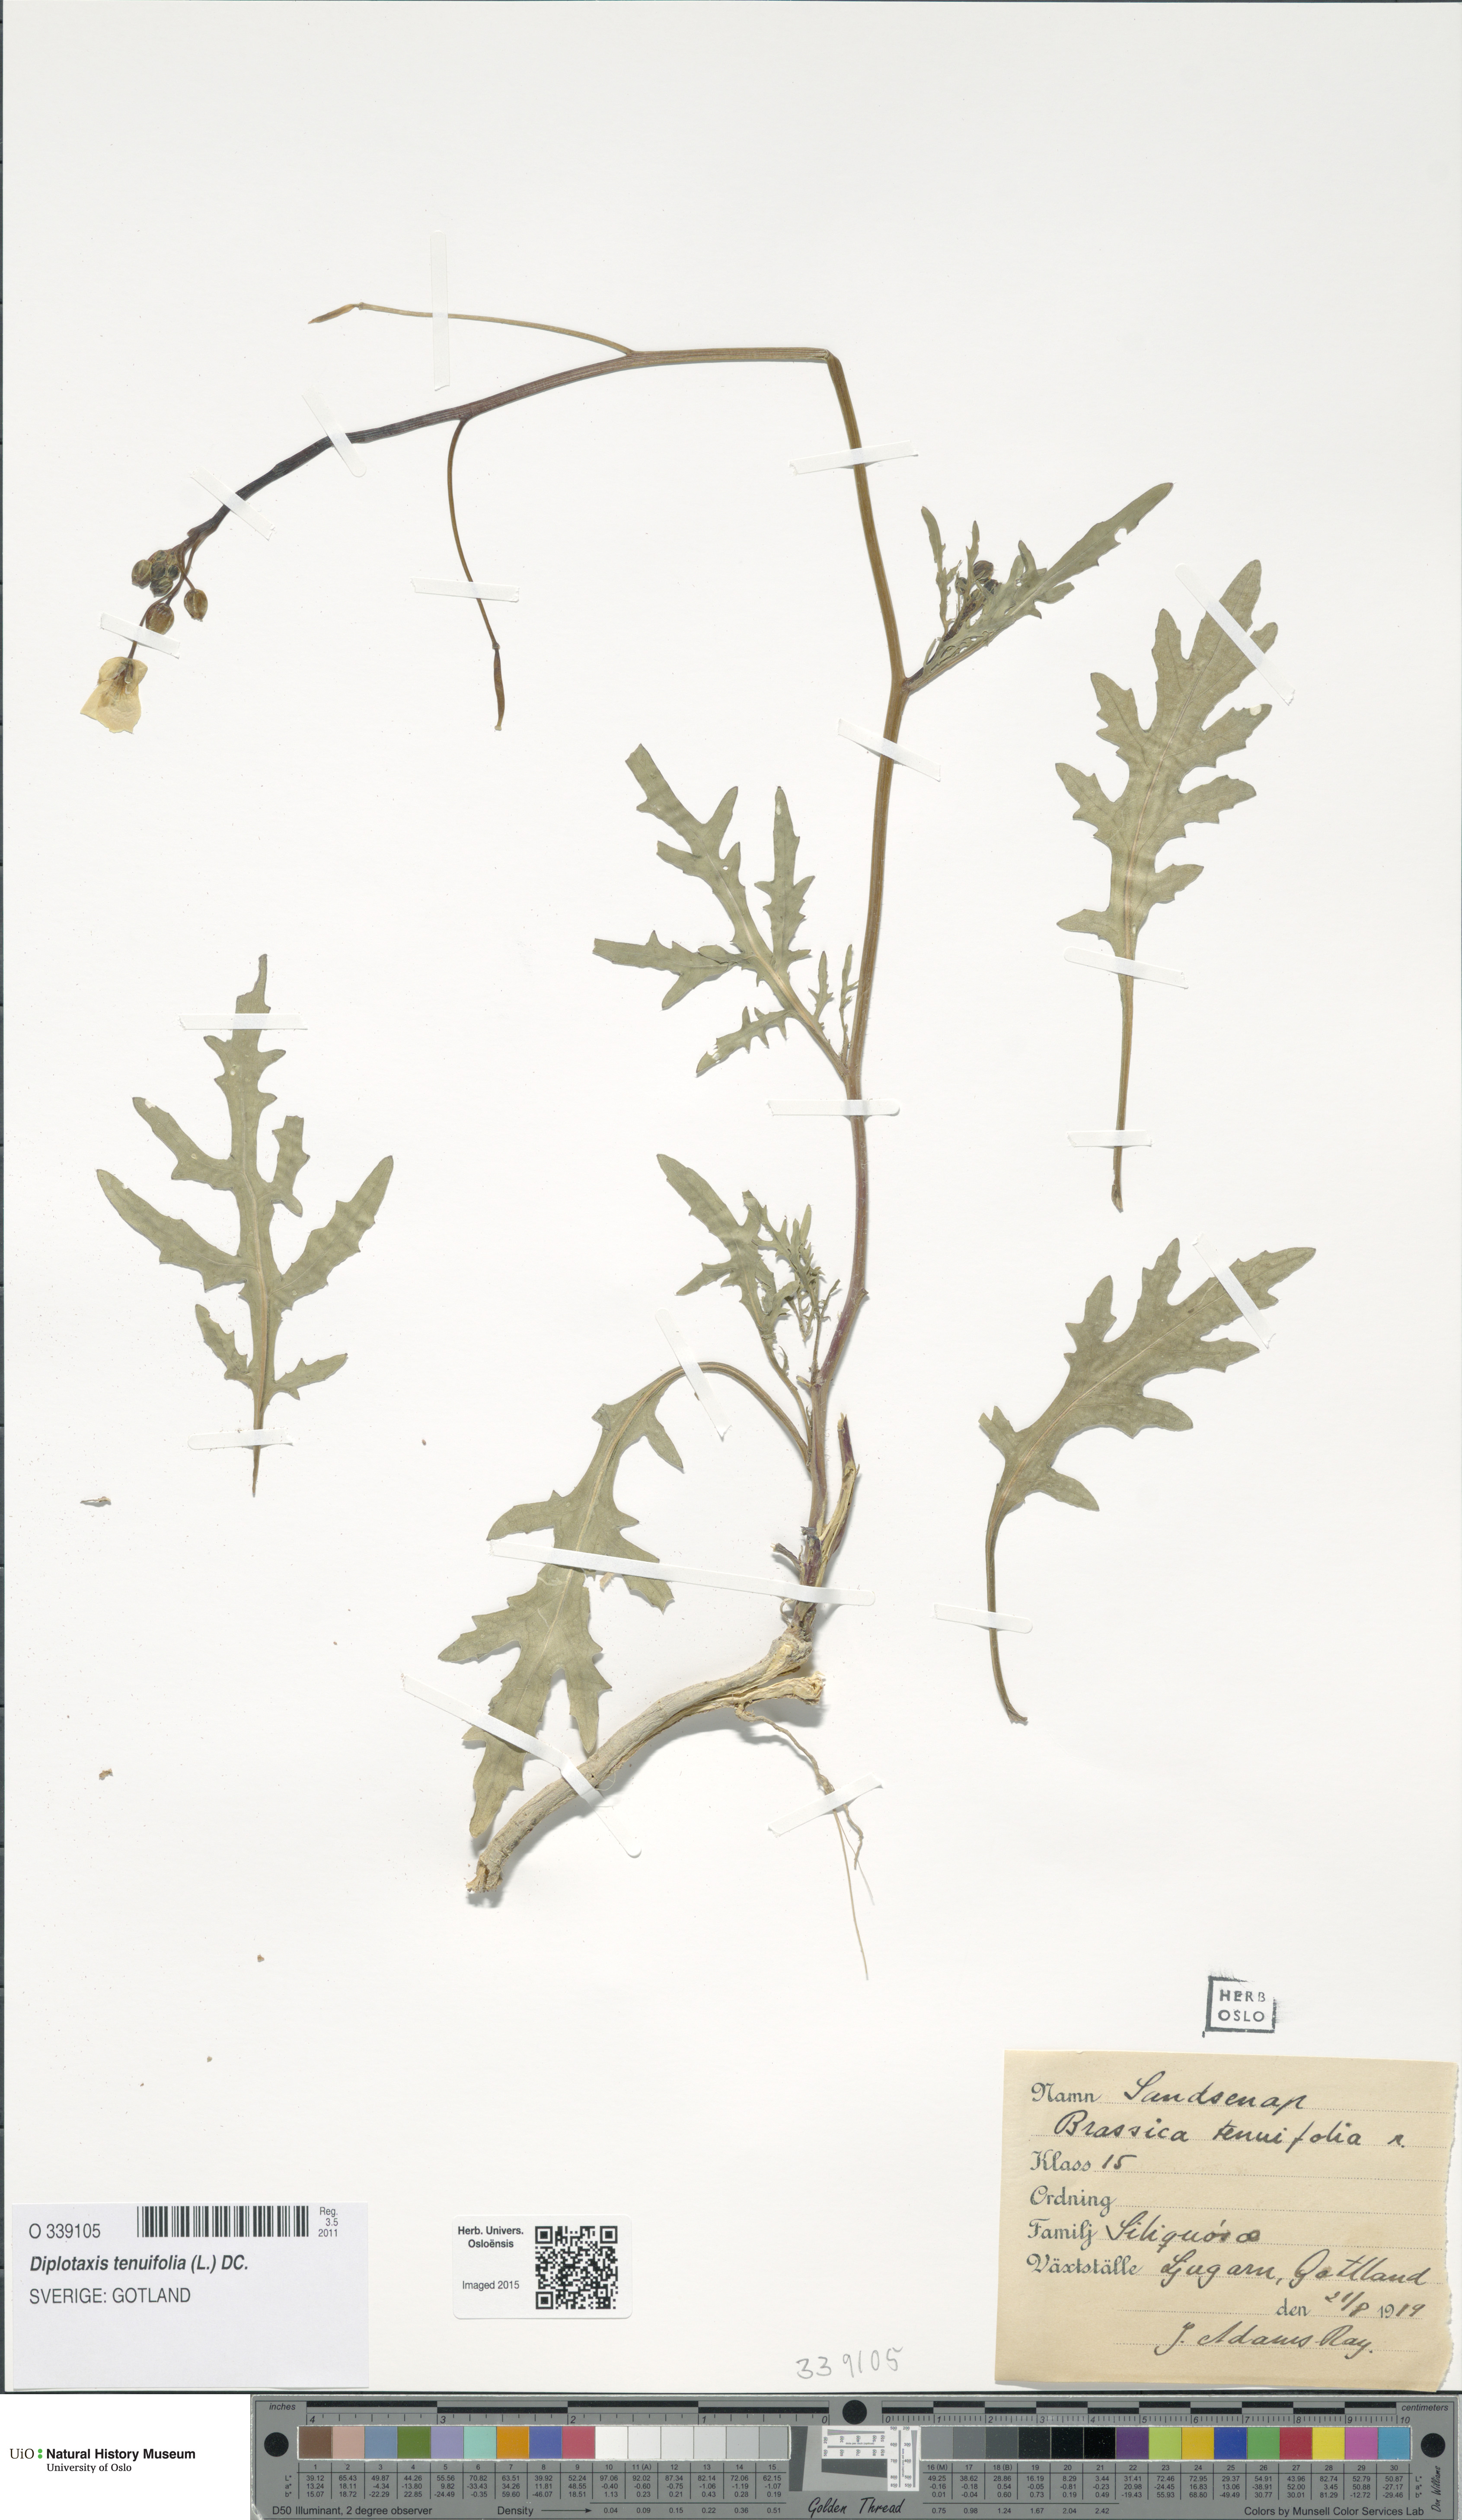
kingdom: Plantae
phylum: Tracheophyta
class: Magnoliopsida
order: Brassicales
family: Brassicaceae
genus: Diplotaxis
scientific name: Diplotaxis tenuifolia
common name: Perennial wall-rocket
